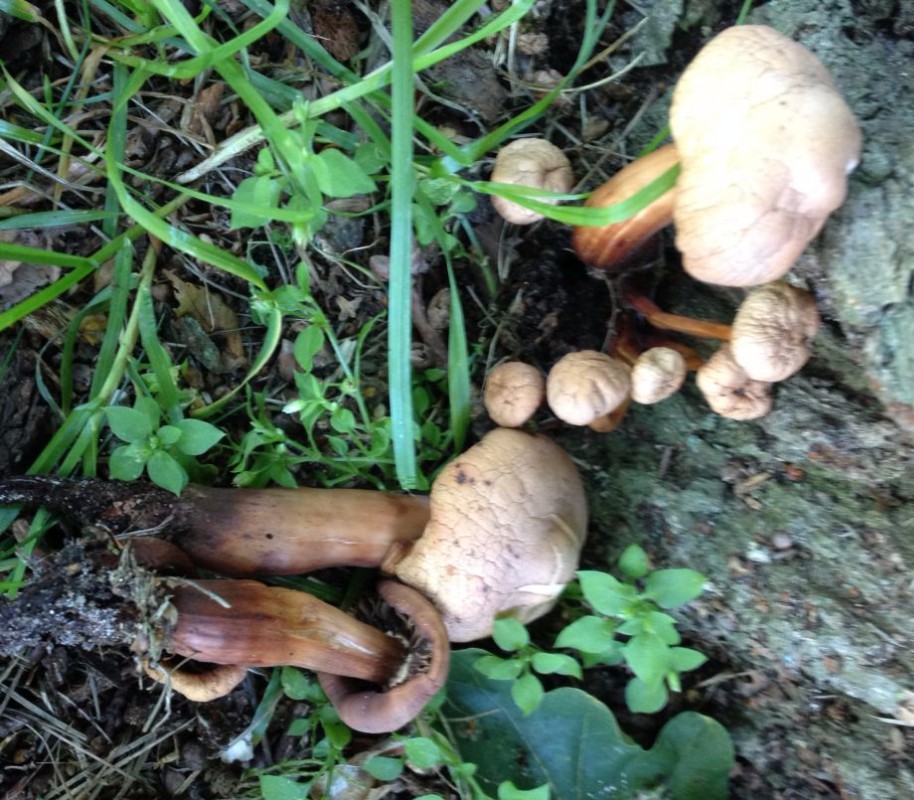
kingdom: Fungi
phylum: Basidiomycota
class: Agaricomycetes
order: Agaricales
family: Omphalotaceae
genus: Gymnopus
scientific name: Gymnopus fusipes
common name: tenstokket fladhat
